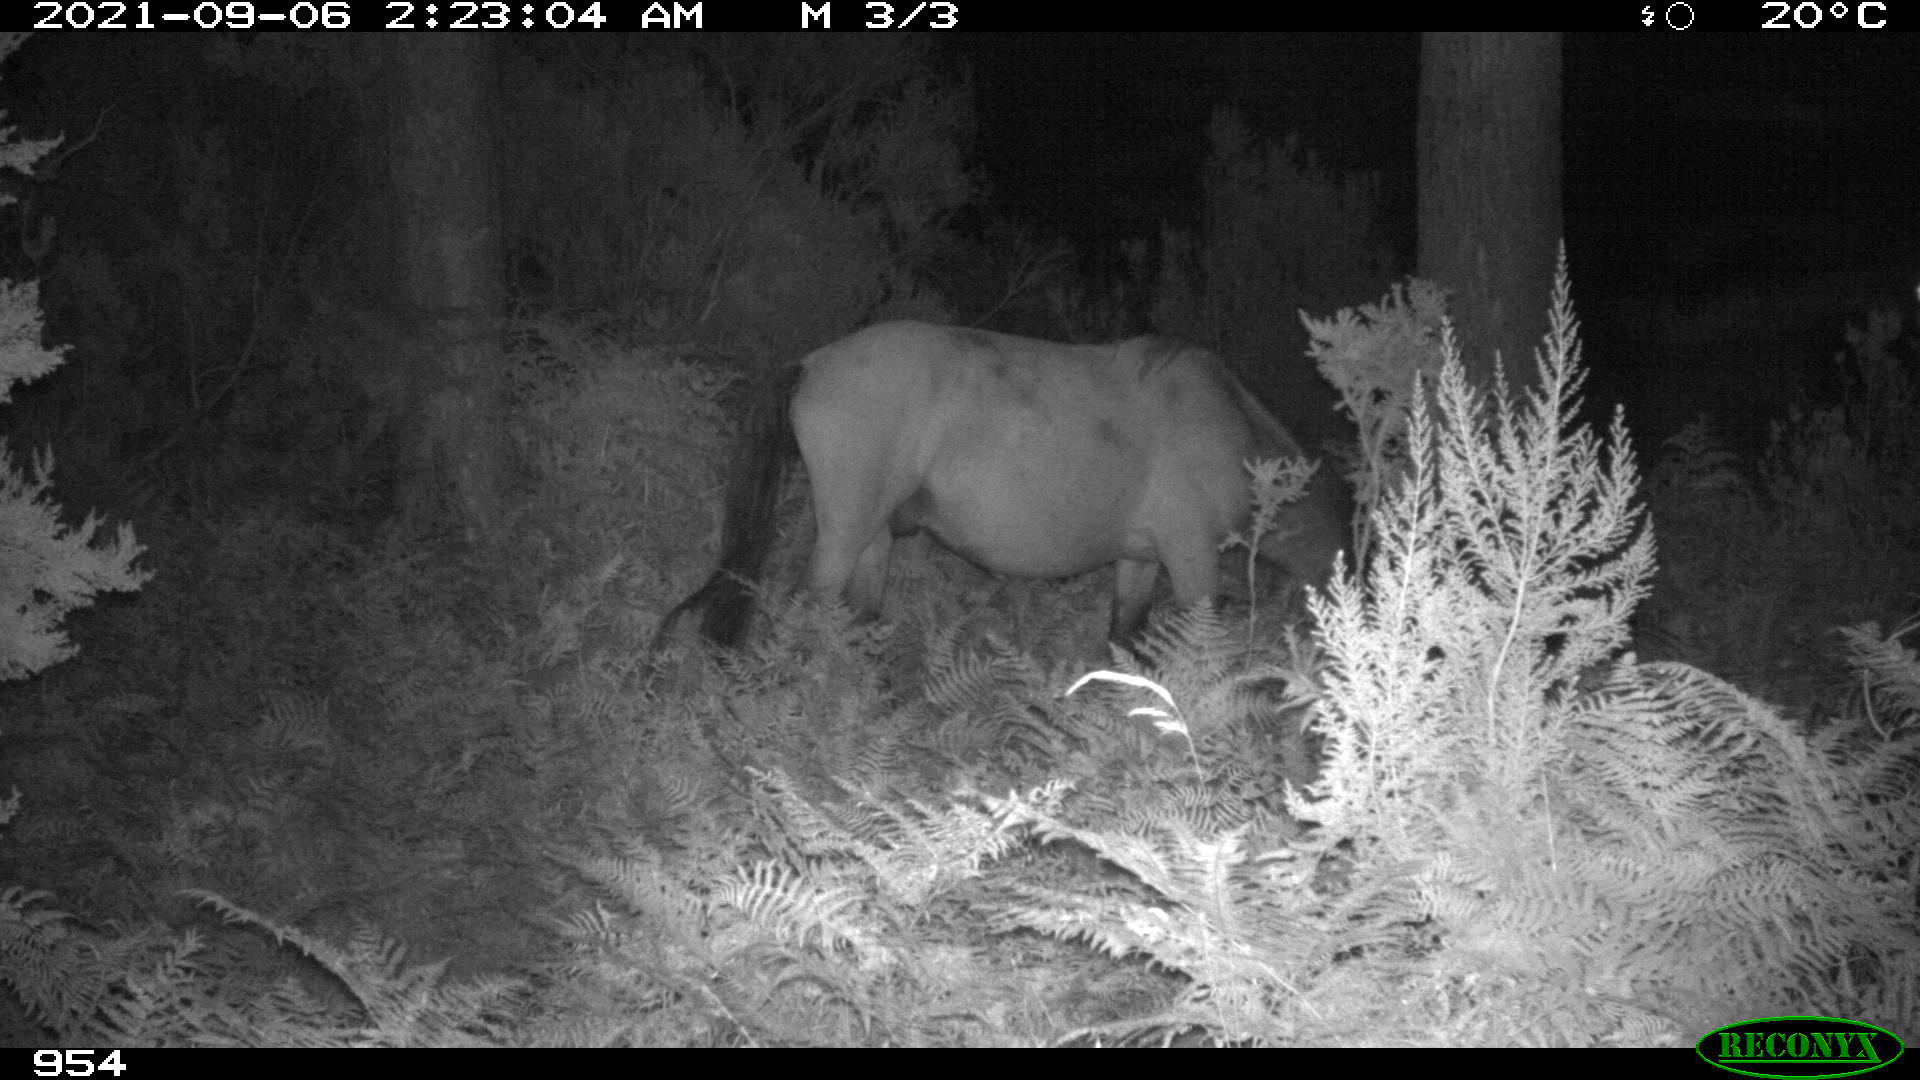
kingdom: Animalia
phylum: Chordata
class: Mammalia
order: Perissodactyla
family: Equidae
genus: Equus
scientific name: Equus caballus
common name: Horse
